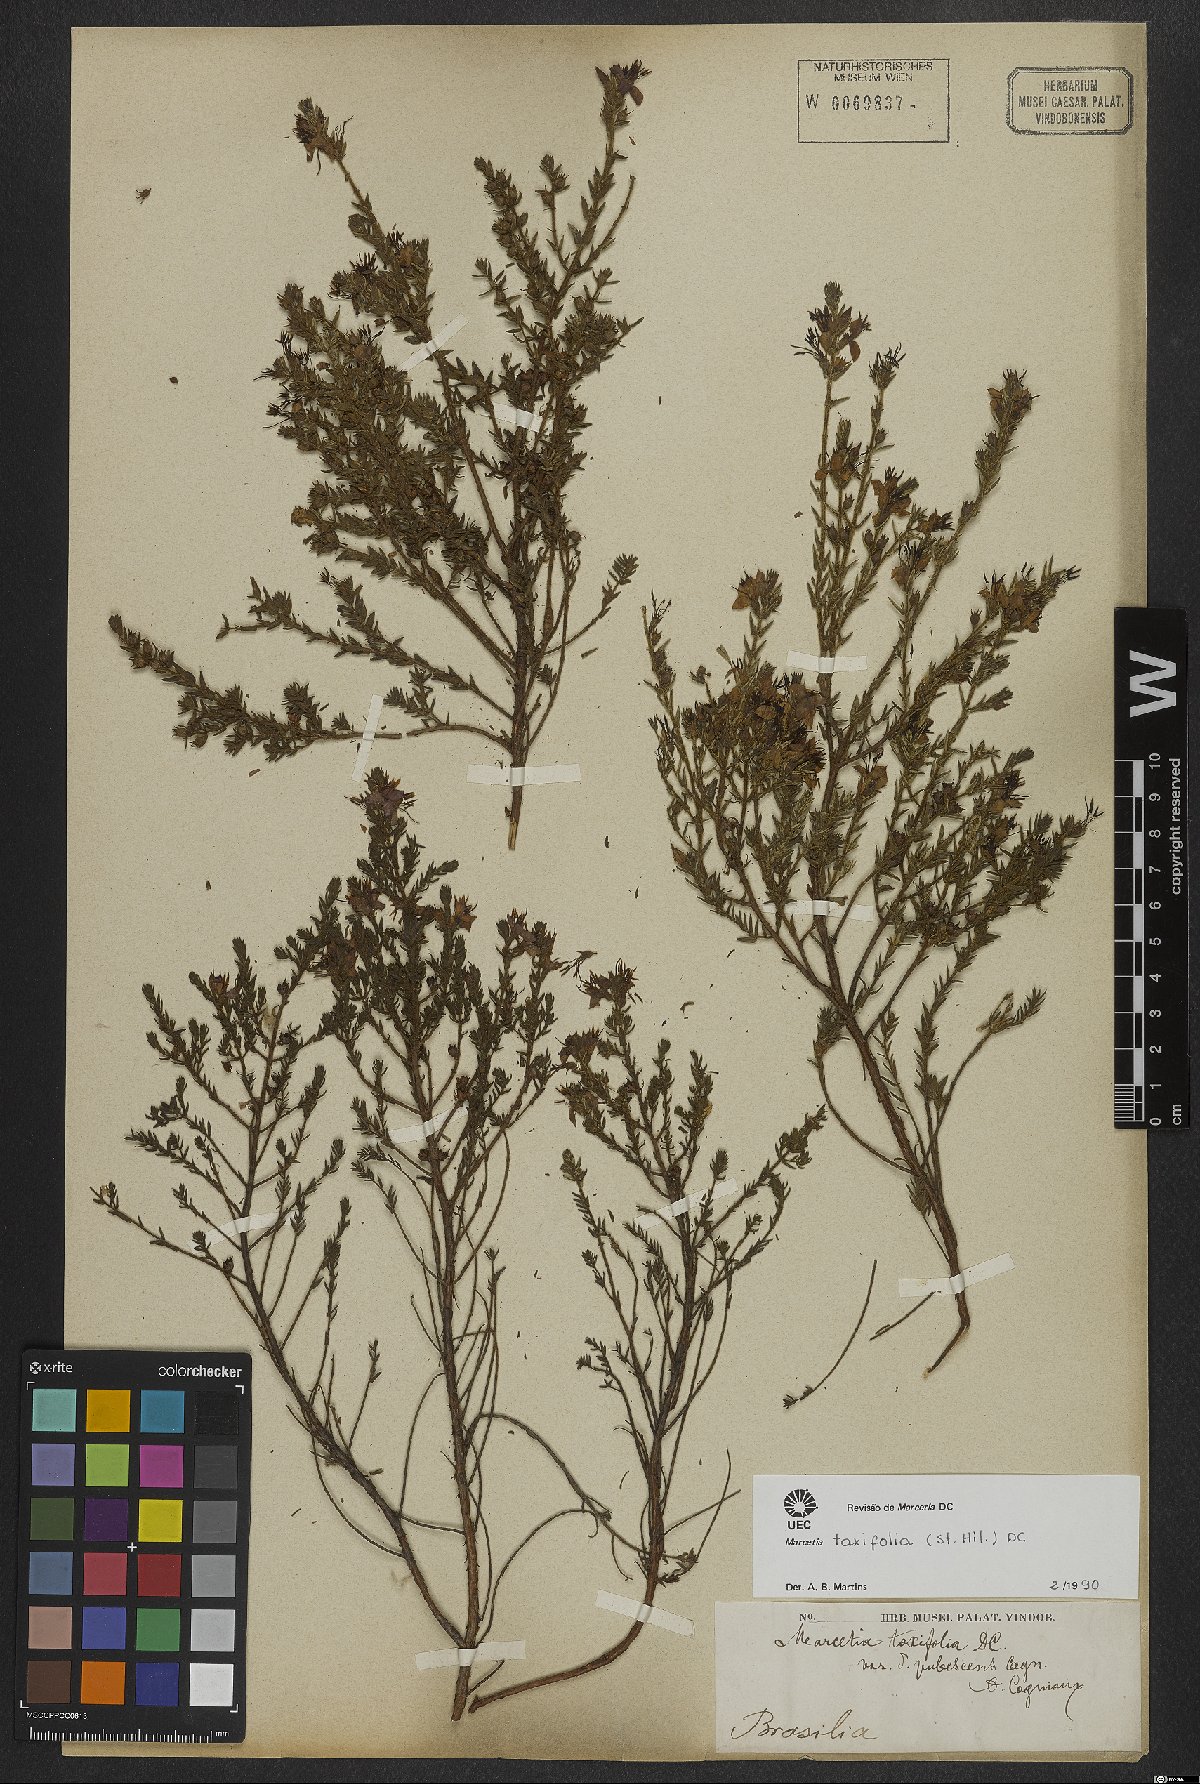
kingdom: Plantae
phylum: Tracheophyta
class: Magnoliopsida
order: Myrtales
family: Melastomataceae
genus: Marcetia
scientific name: Marcetia taxifolia
